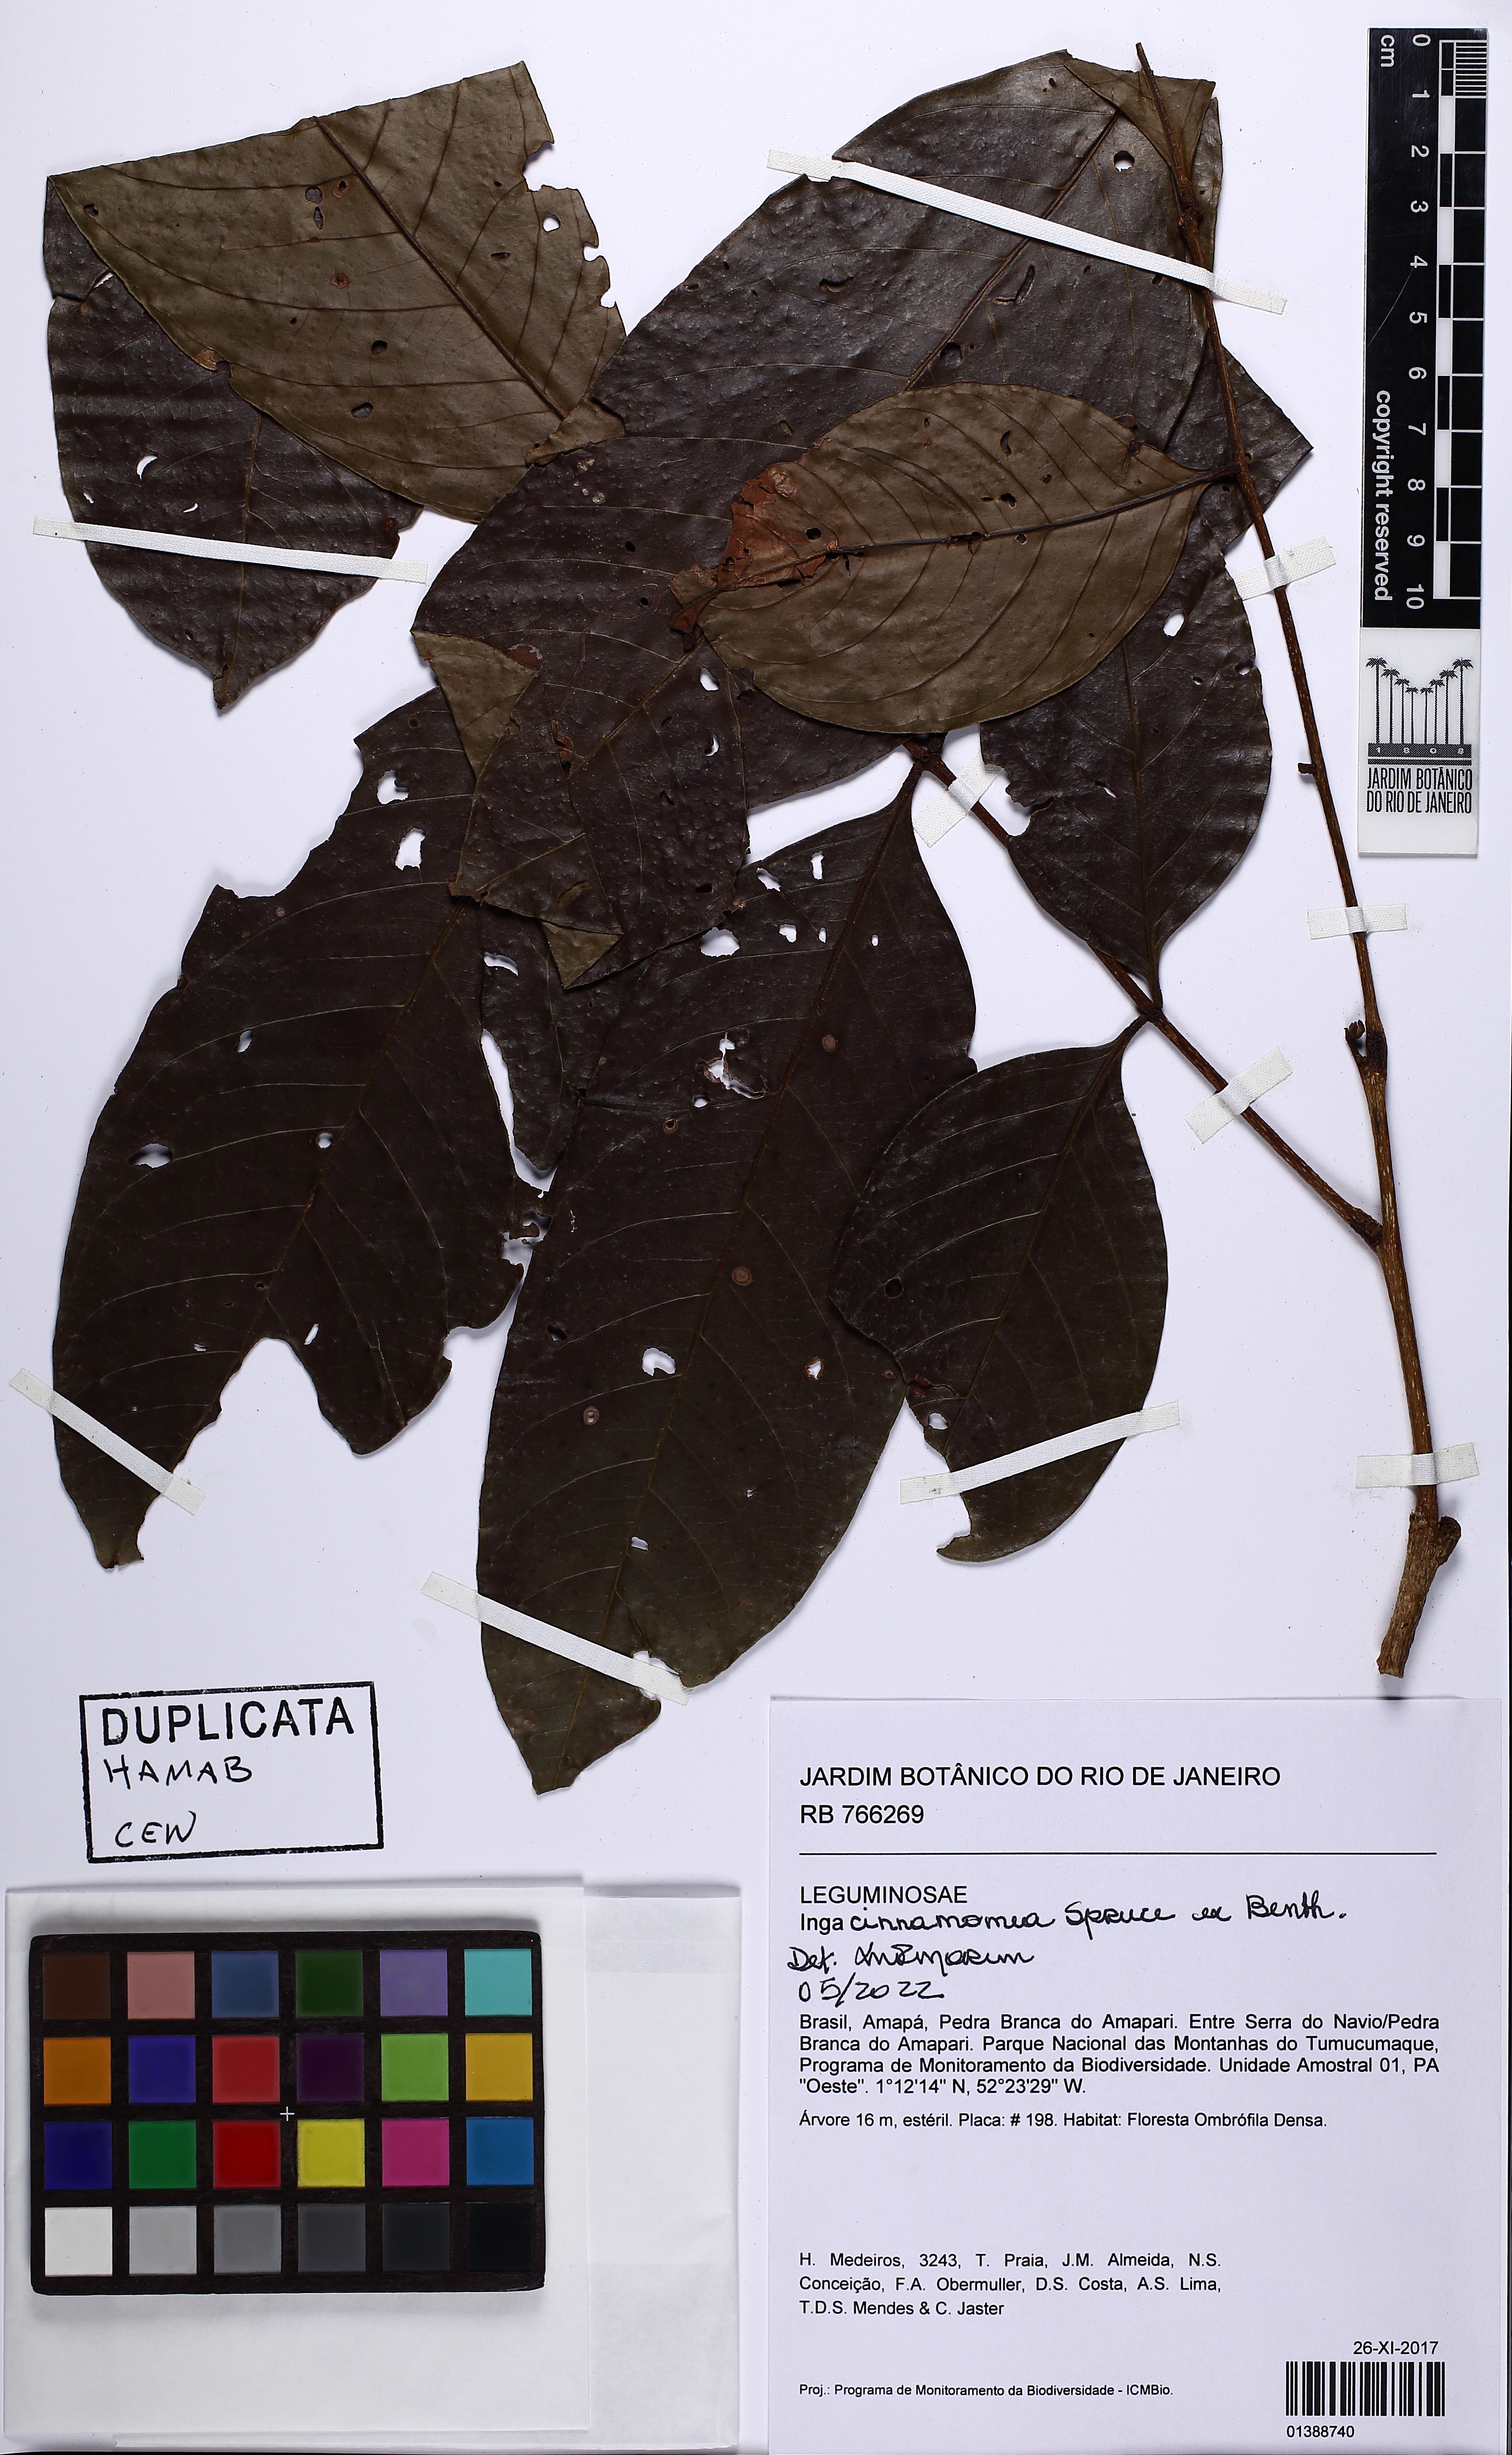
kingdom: Plantae
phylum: Tracheophyta
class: Magnoliopsida
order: Fabales
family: Fabaceae
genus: Inga
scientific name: Inga cinnamomea
